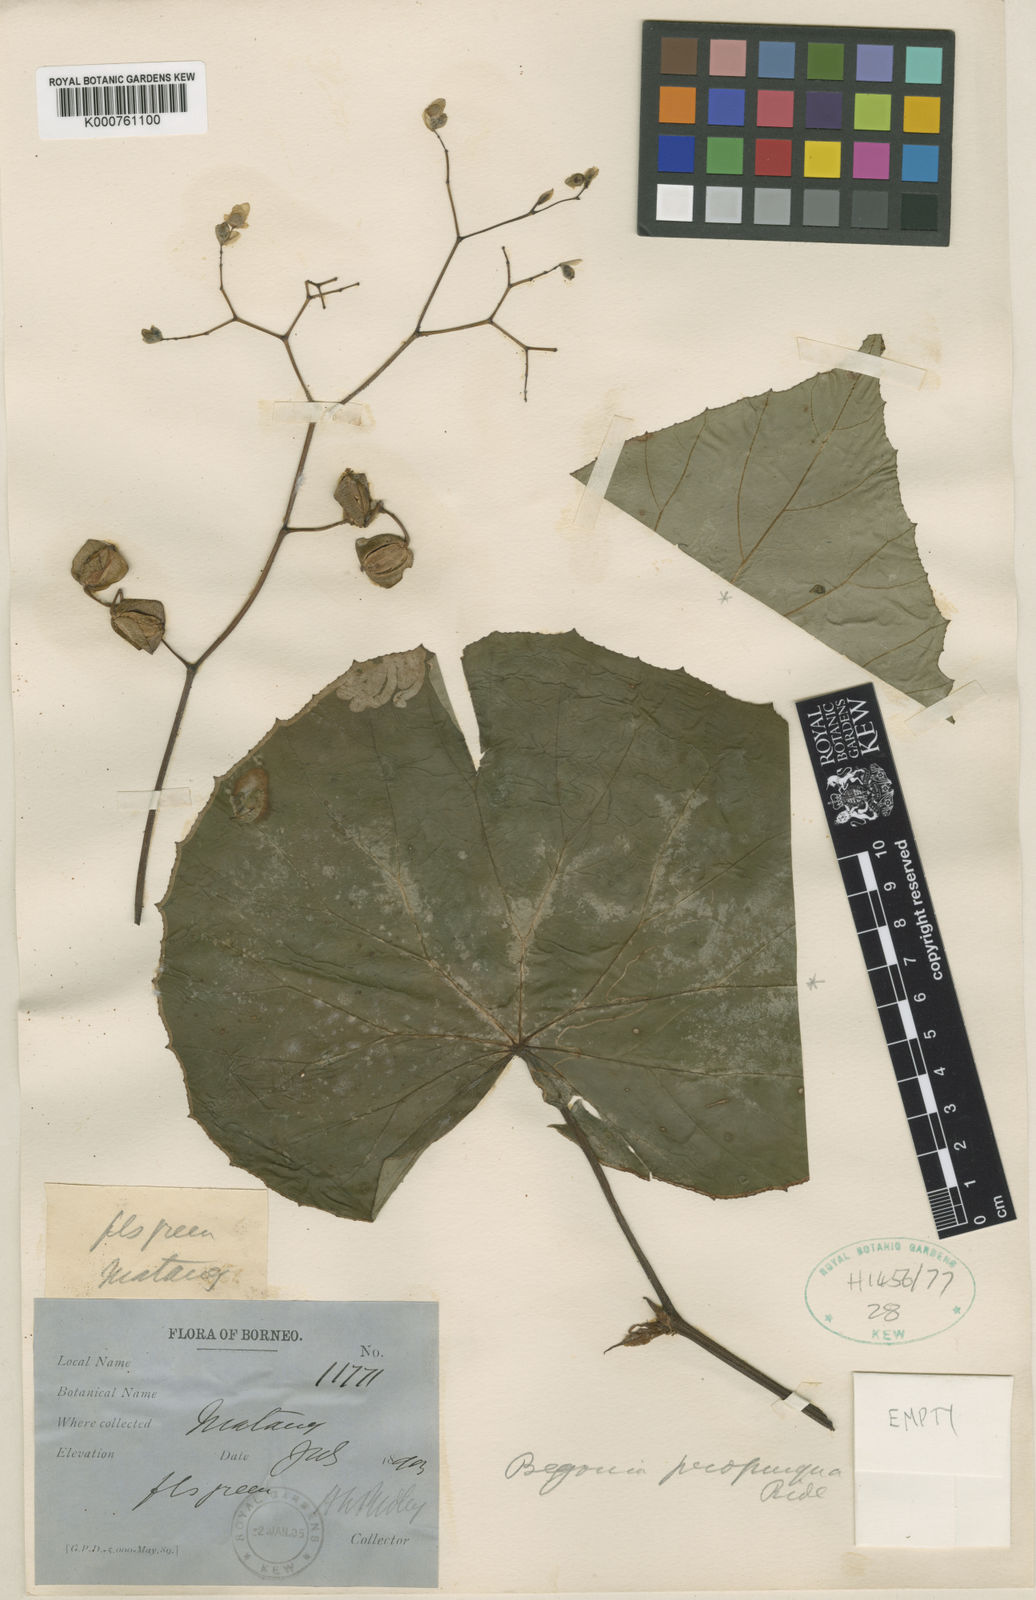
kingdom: Plantae
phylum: Tracheophyta
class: Magnoliopsida
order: Cucurbitales
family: Begoniaceae
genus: Begonia
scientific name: Begonia propinqua
